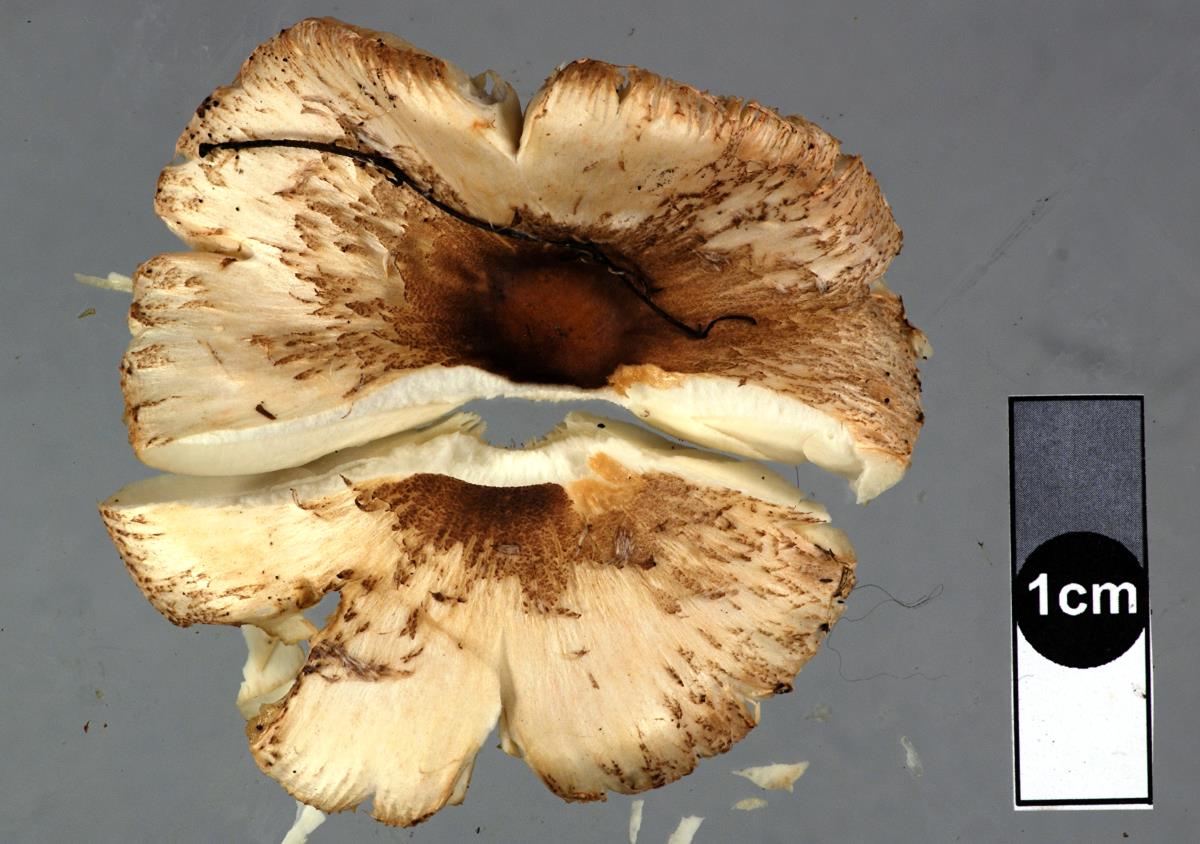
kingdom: Fungi
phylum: Basidiomycota
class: Agaricomycetes
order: Agaricales
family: Agaricaceae
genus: Leucoagaricus
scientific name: Leucoagaricus
